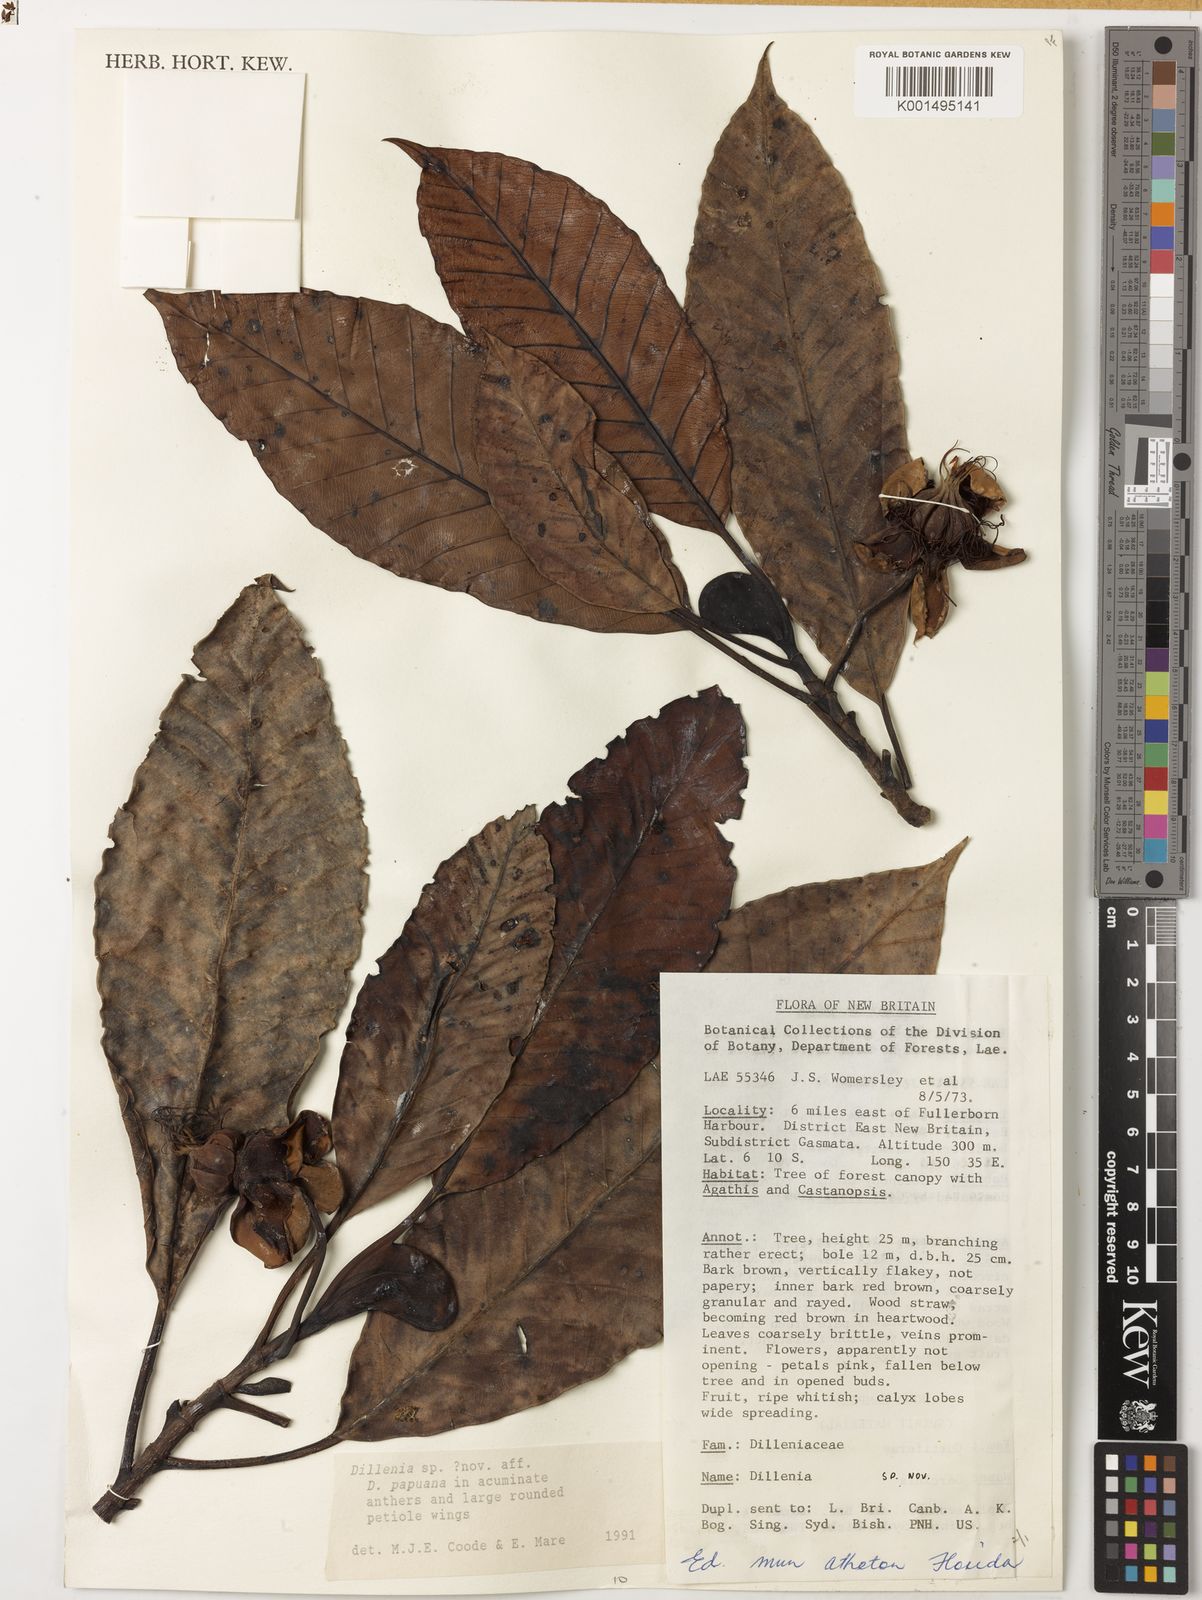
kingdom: Plantae
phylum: Tracheophyta
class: Magnoliopsida
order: Dilleniales
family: Dilleniaceae
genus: Dillenia
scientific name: Dillenia
